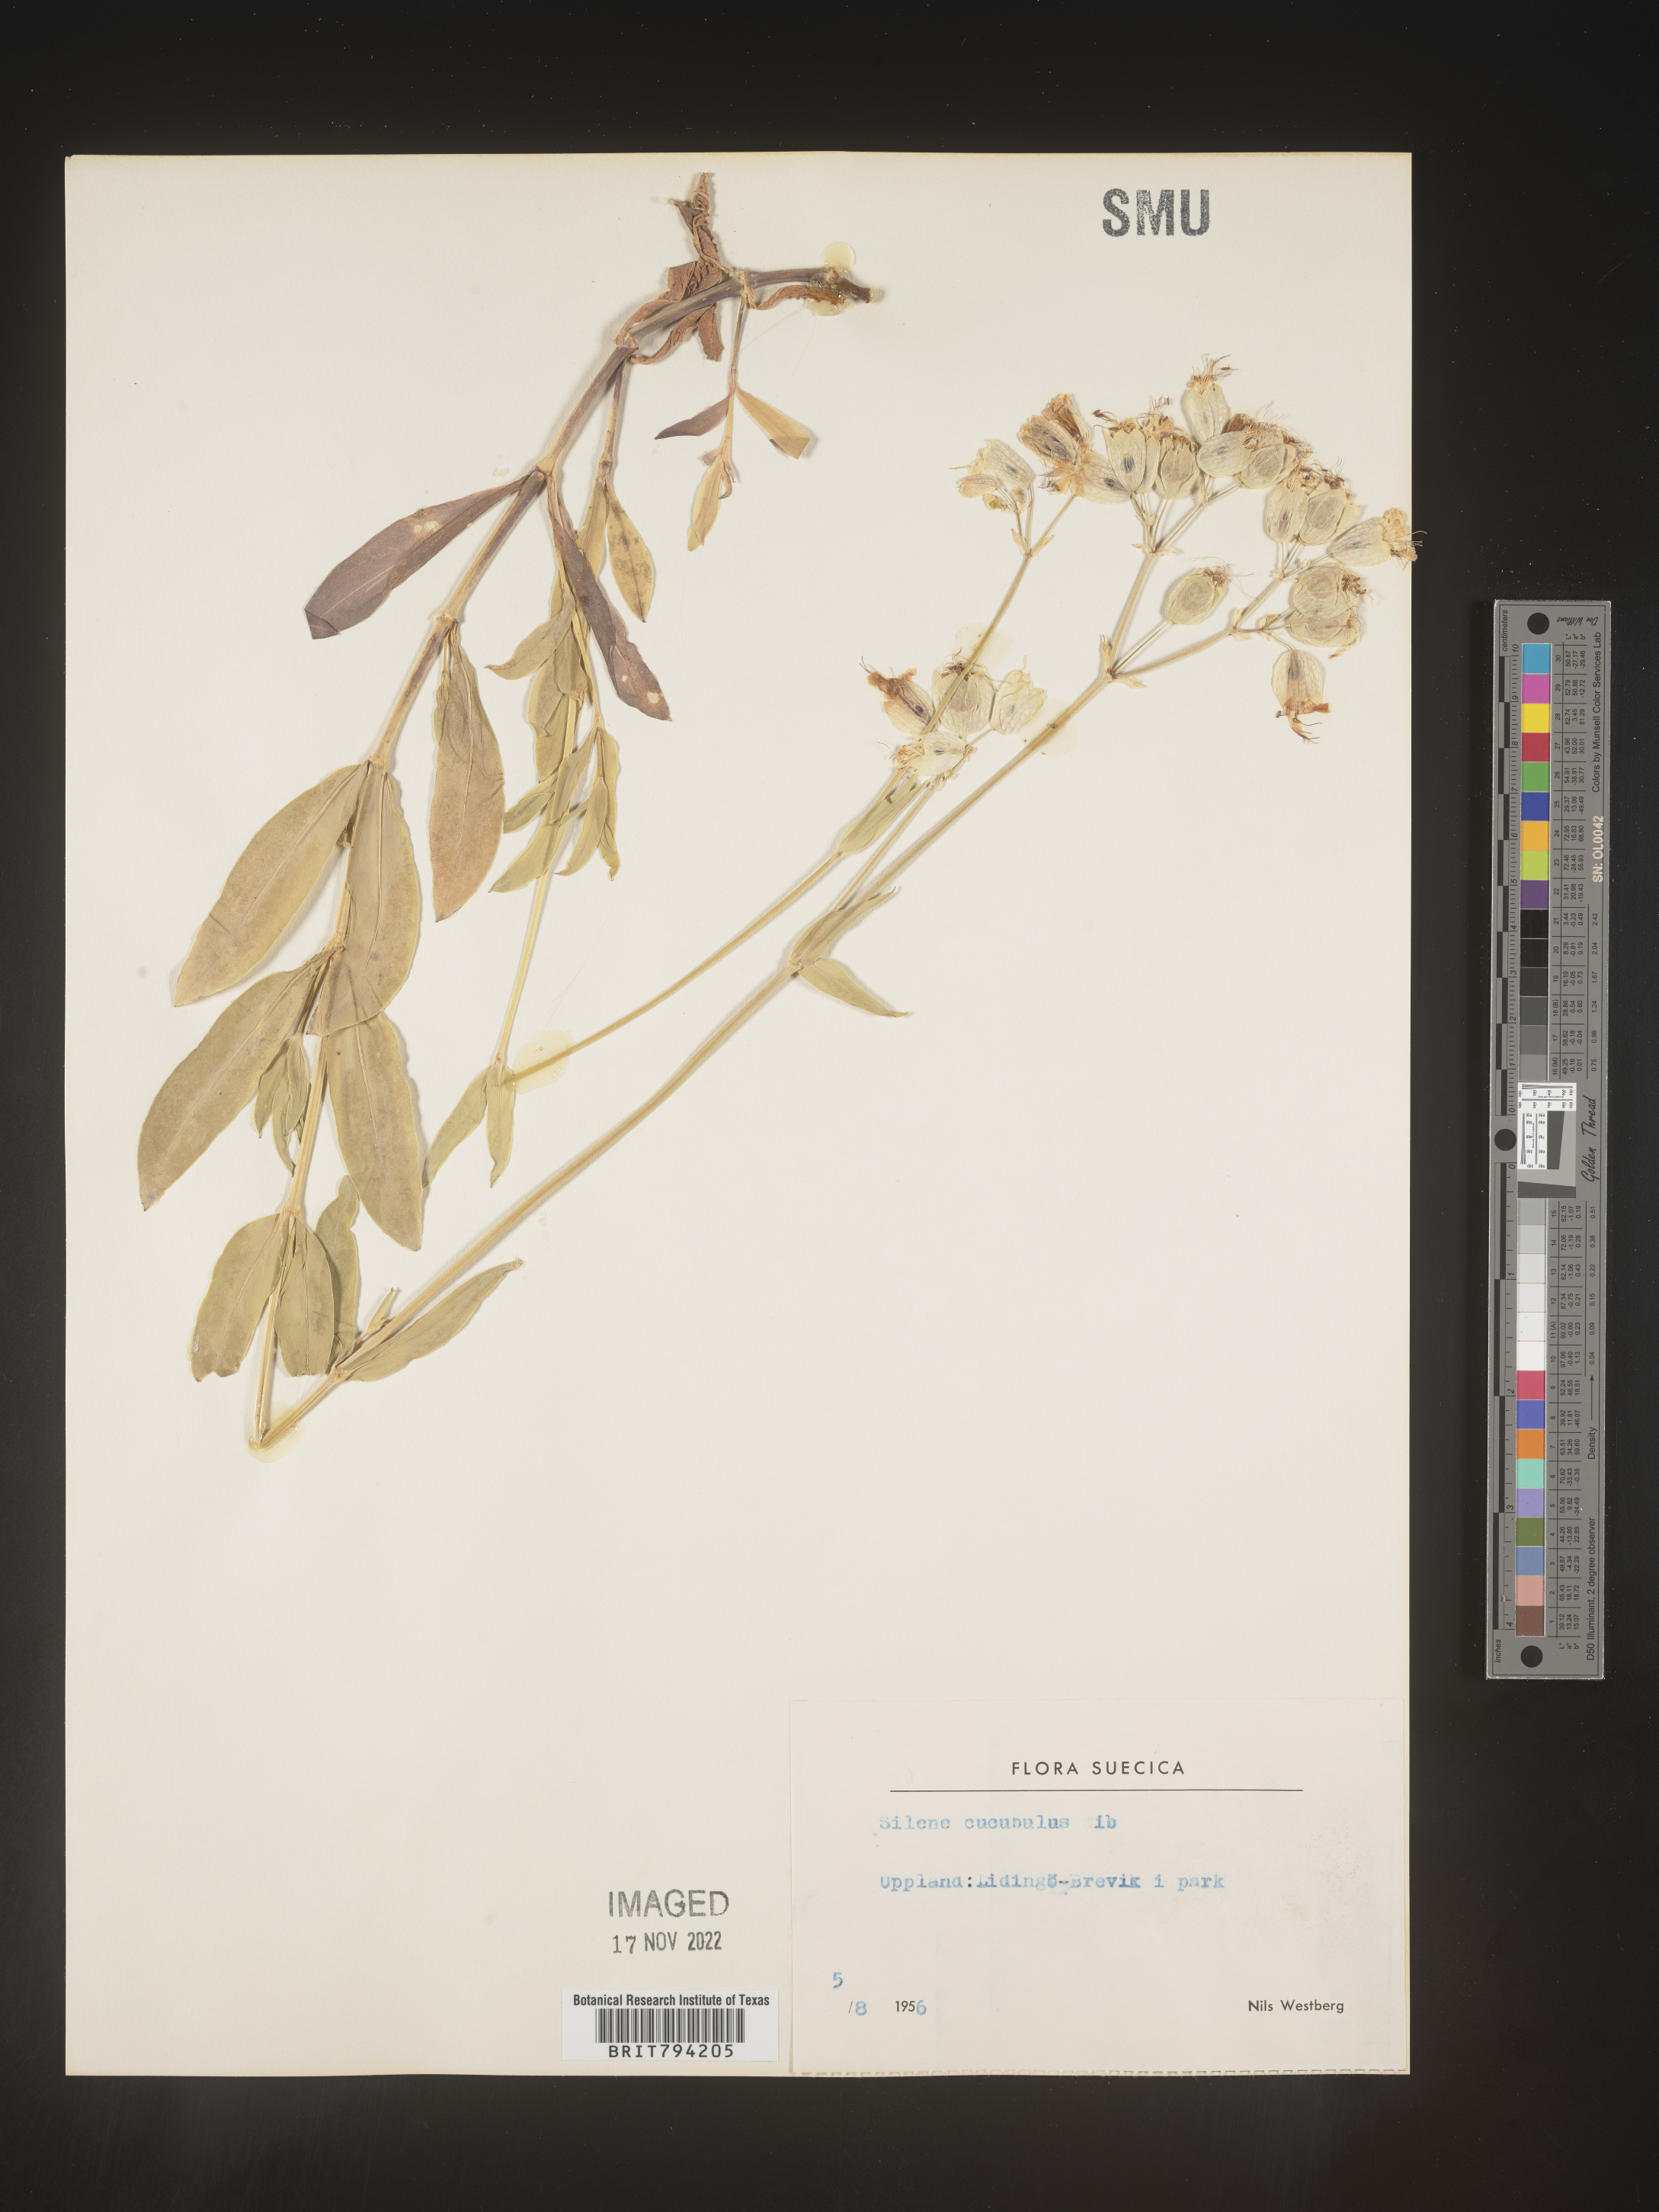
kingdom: Plantae
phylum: Tracheophyta
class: Magnoliopsida
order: Caryophyllales
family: Caryophyllaceae
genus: Silene
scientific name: Silene vulgaris
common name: Bladder campion
